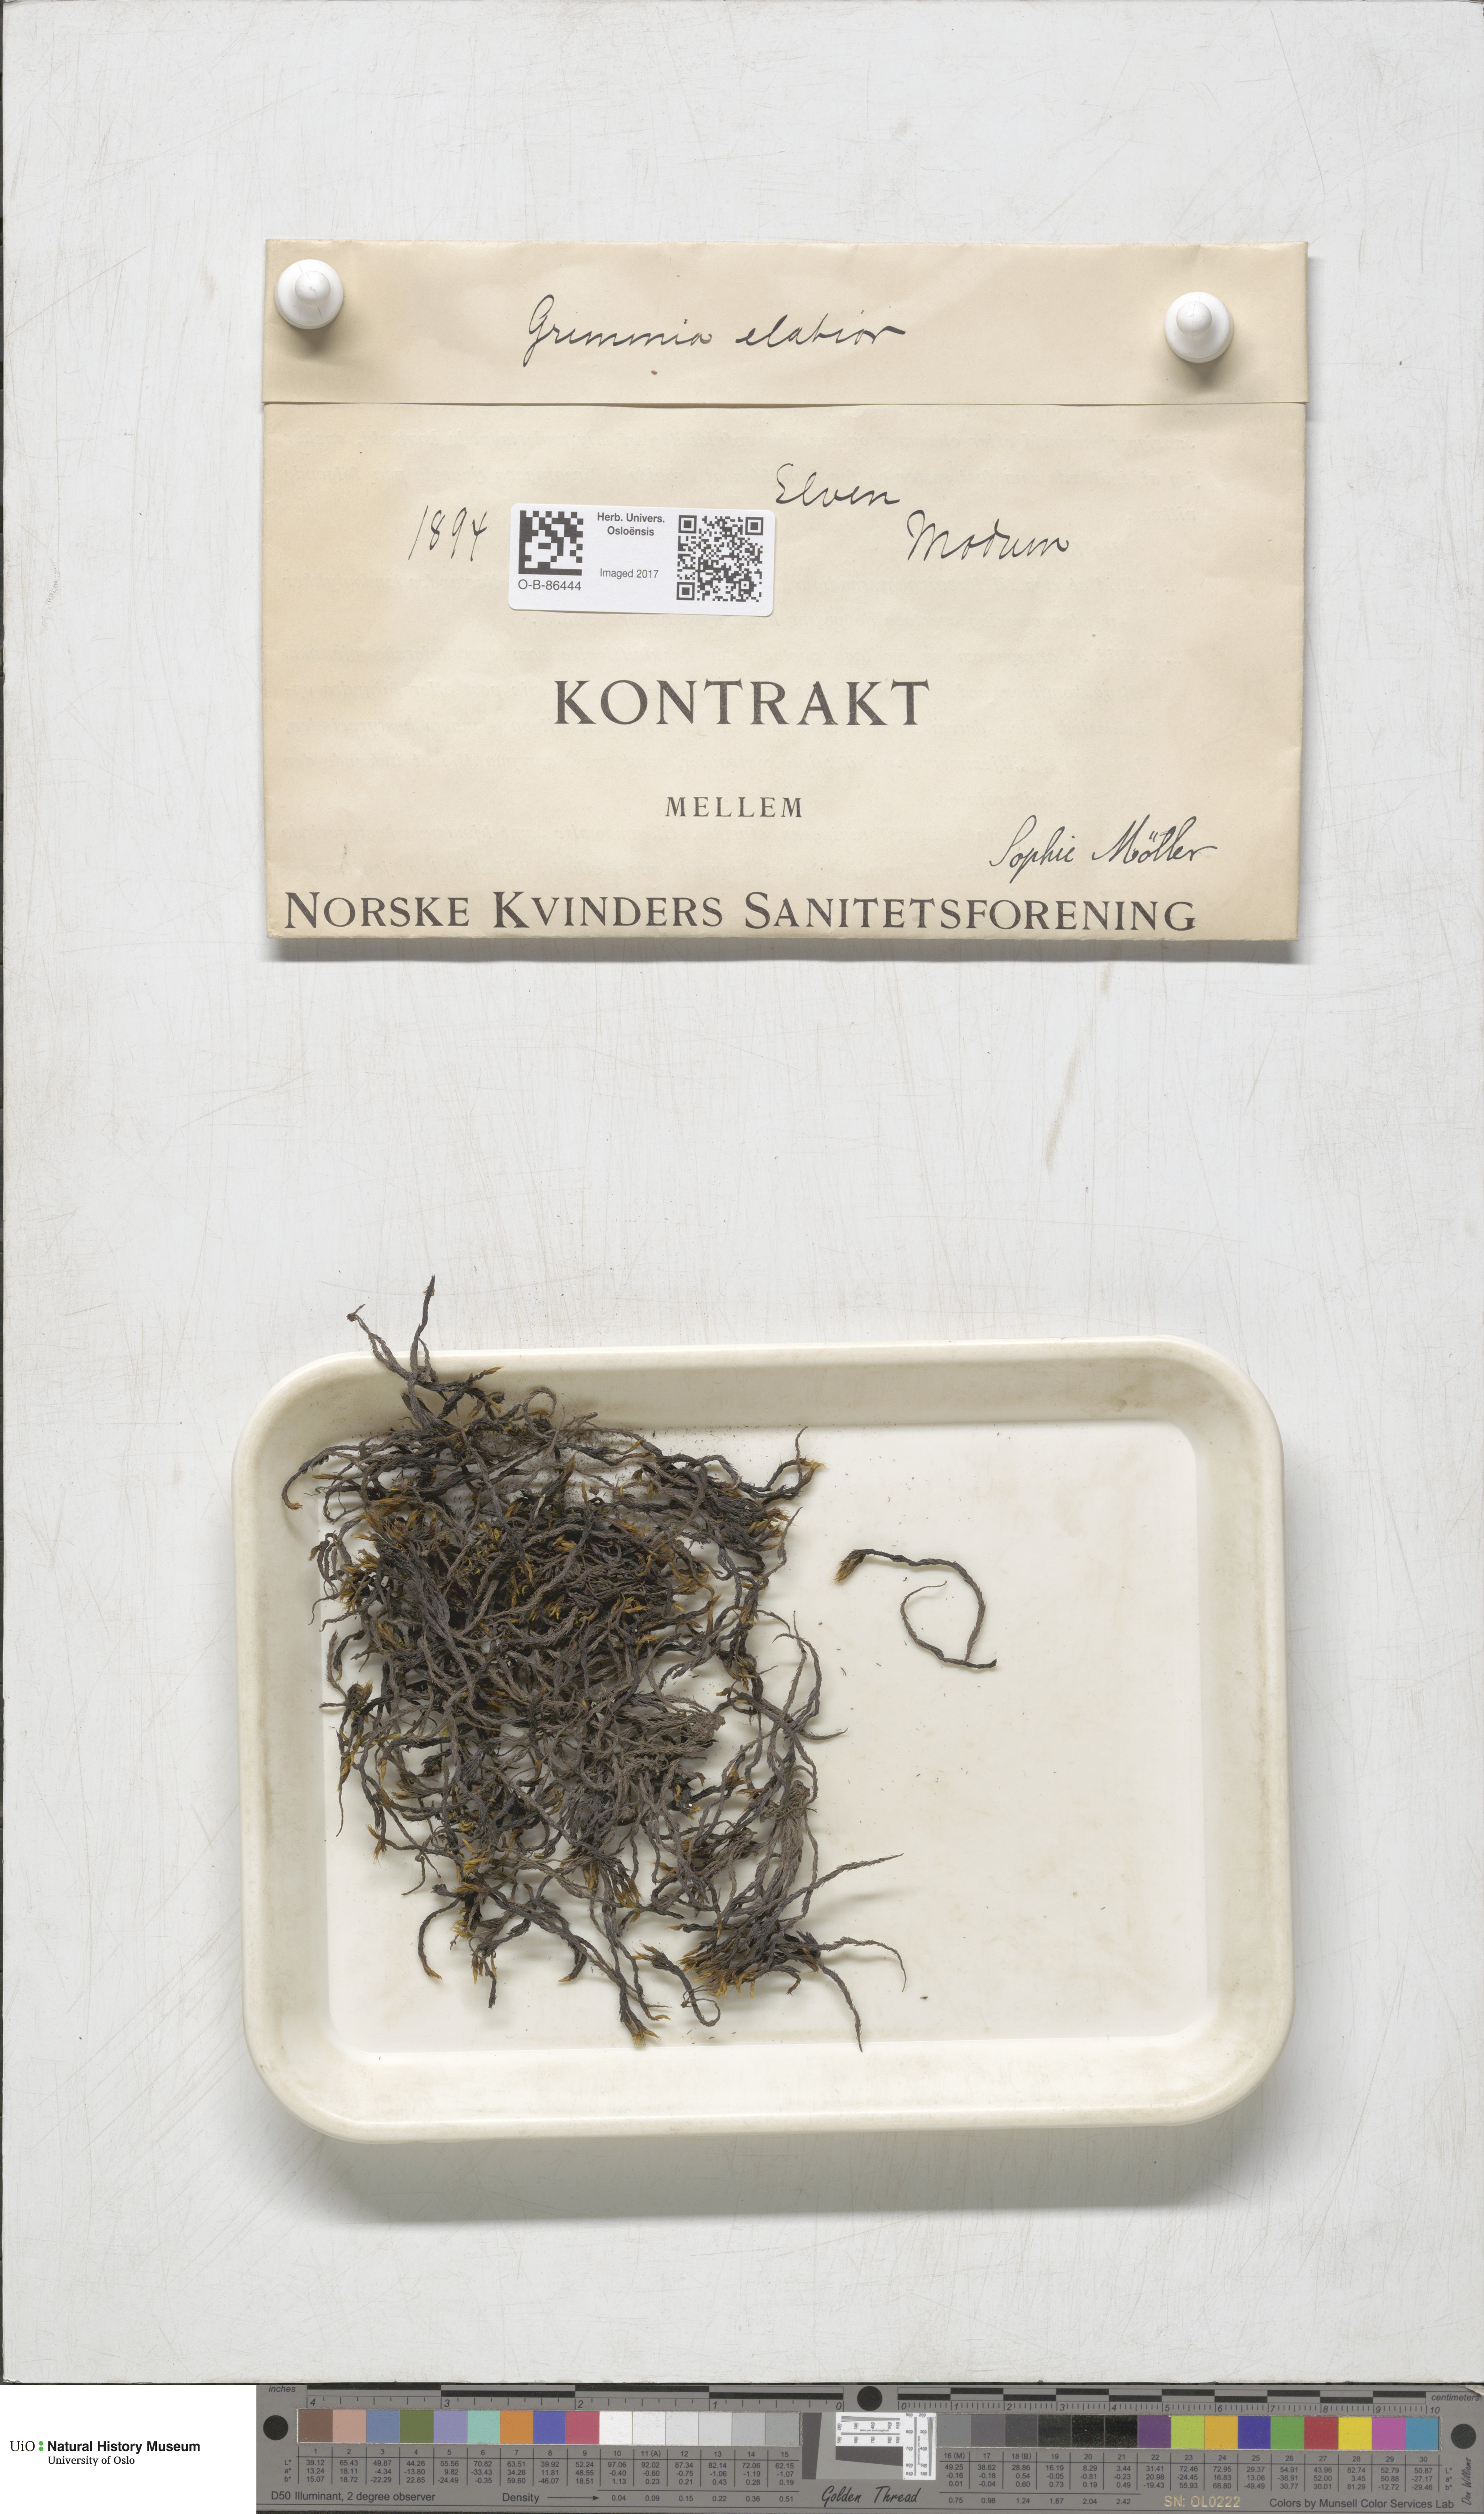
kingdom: Plantae
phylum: Bryophyta
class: Bryopsida
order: Grimmiales
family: Grimmiaceae
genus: Grimmia
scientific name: Grimmia elatior
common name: Large grimmia
